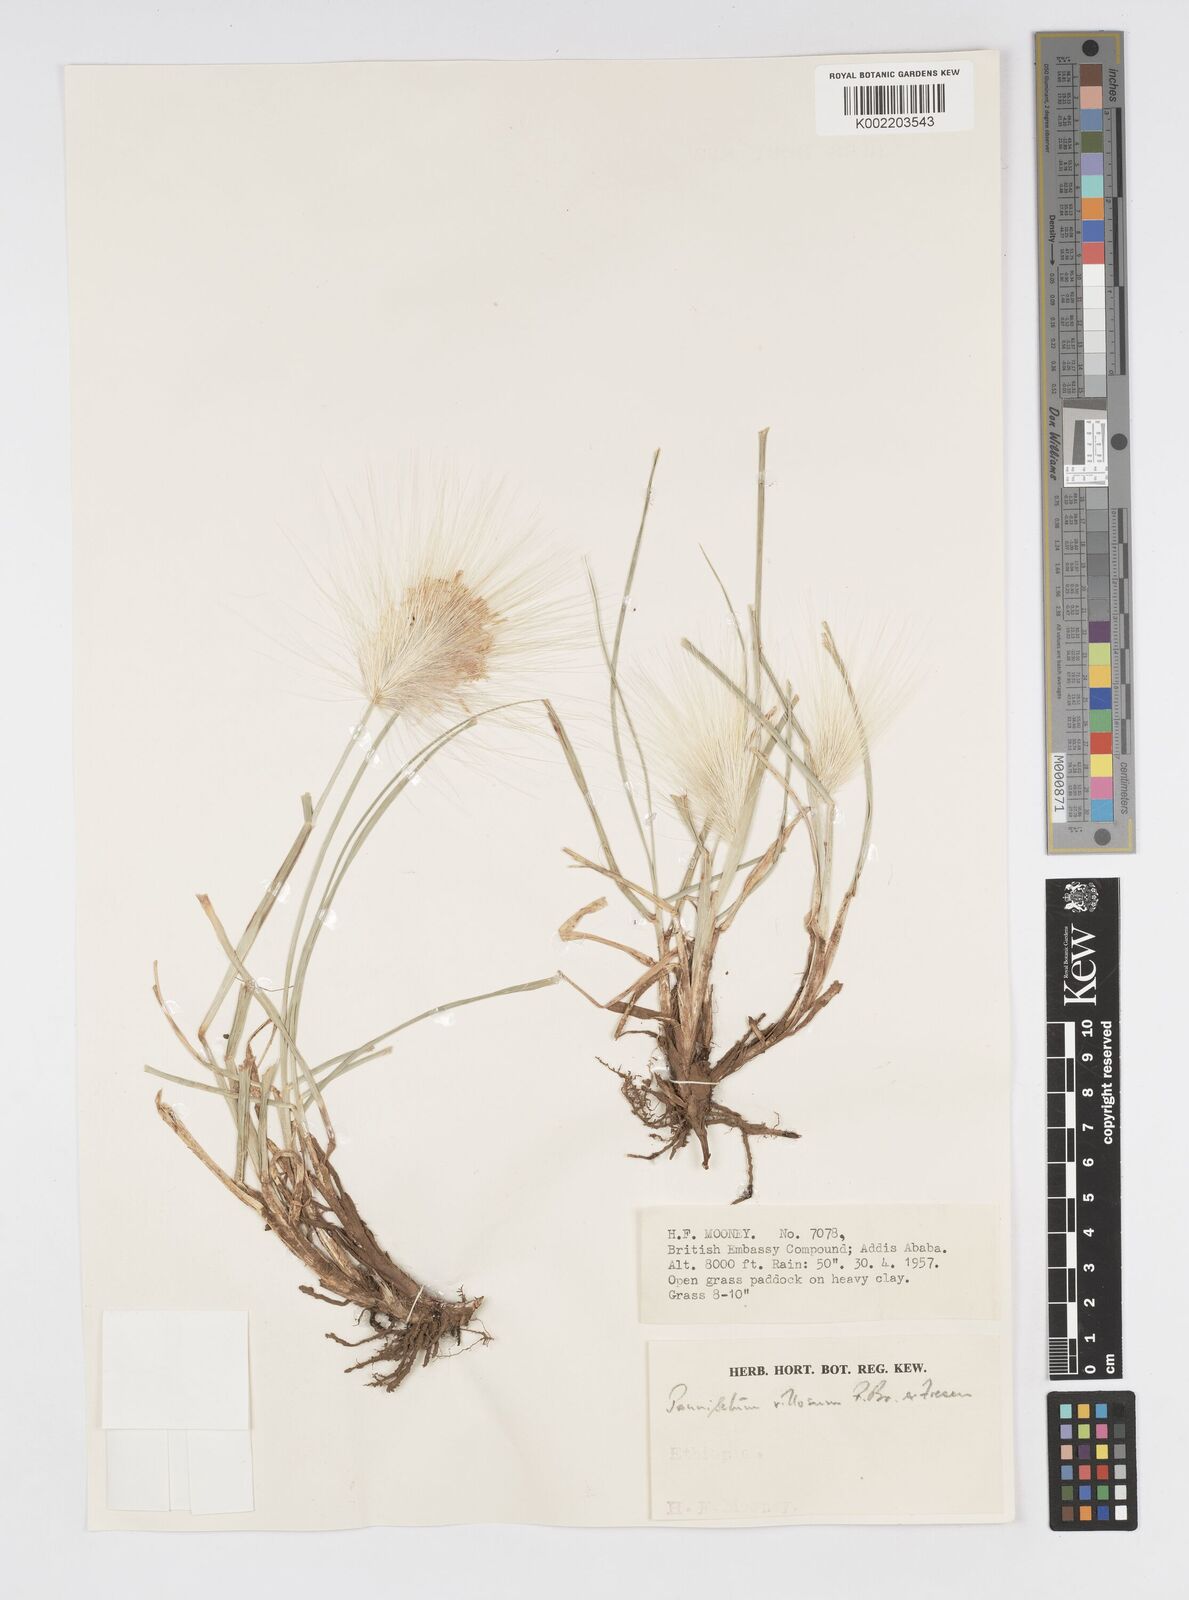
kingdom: Plantae
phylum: Tracheophyta
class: Liliopsida
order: Poales
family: Poaceae
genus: Cenchrus
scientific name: Cenchrus longisetus
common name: Feathertop
